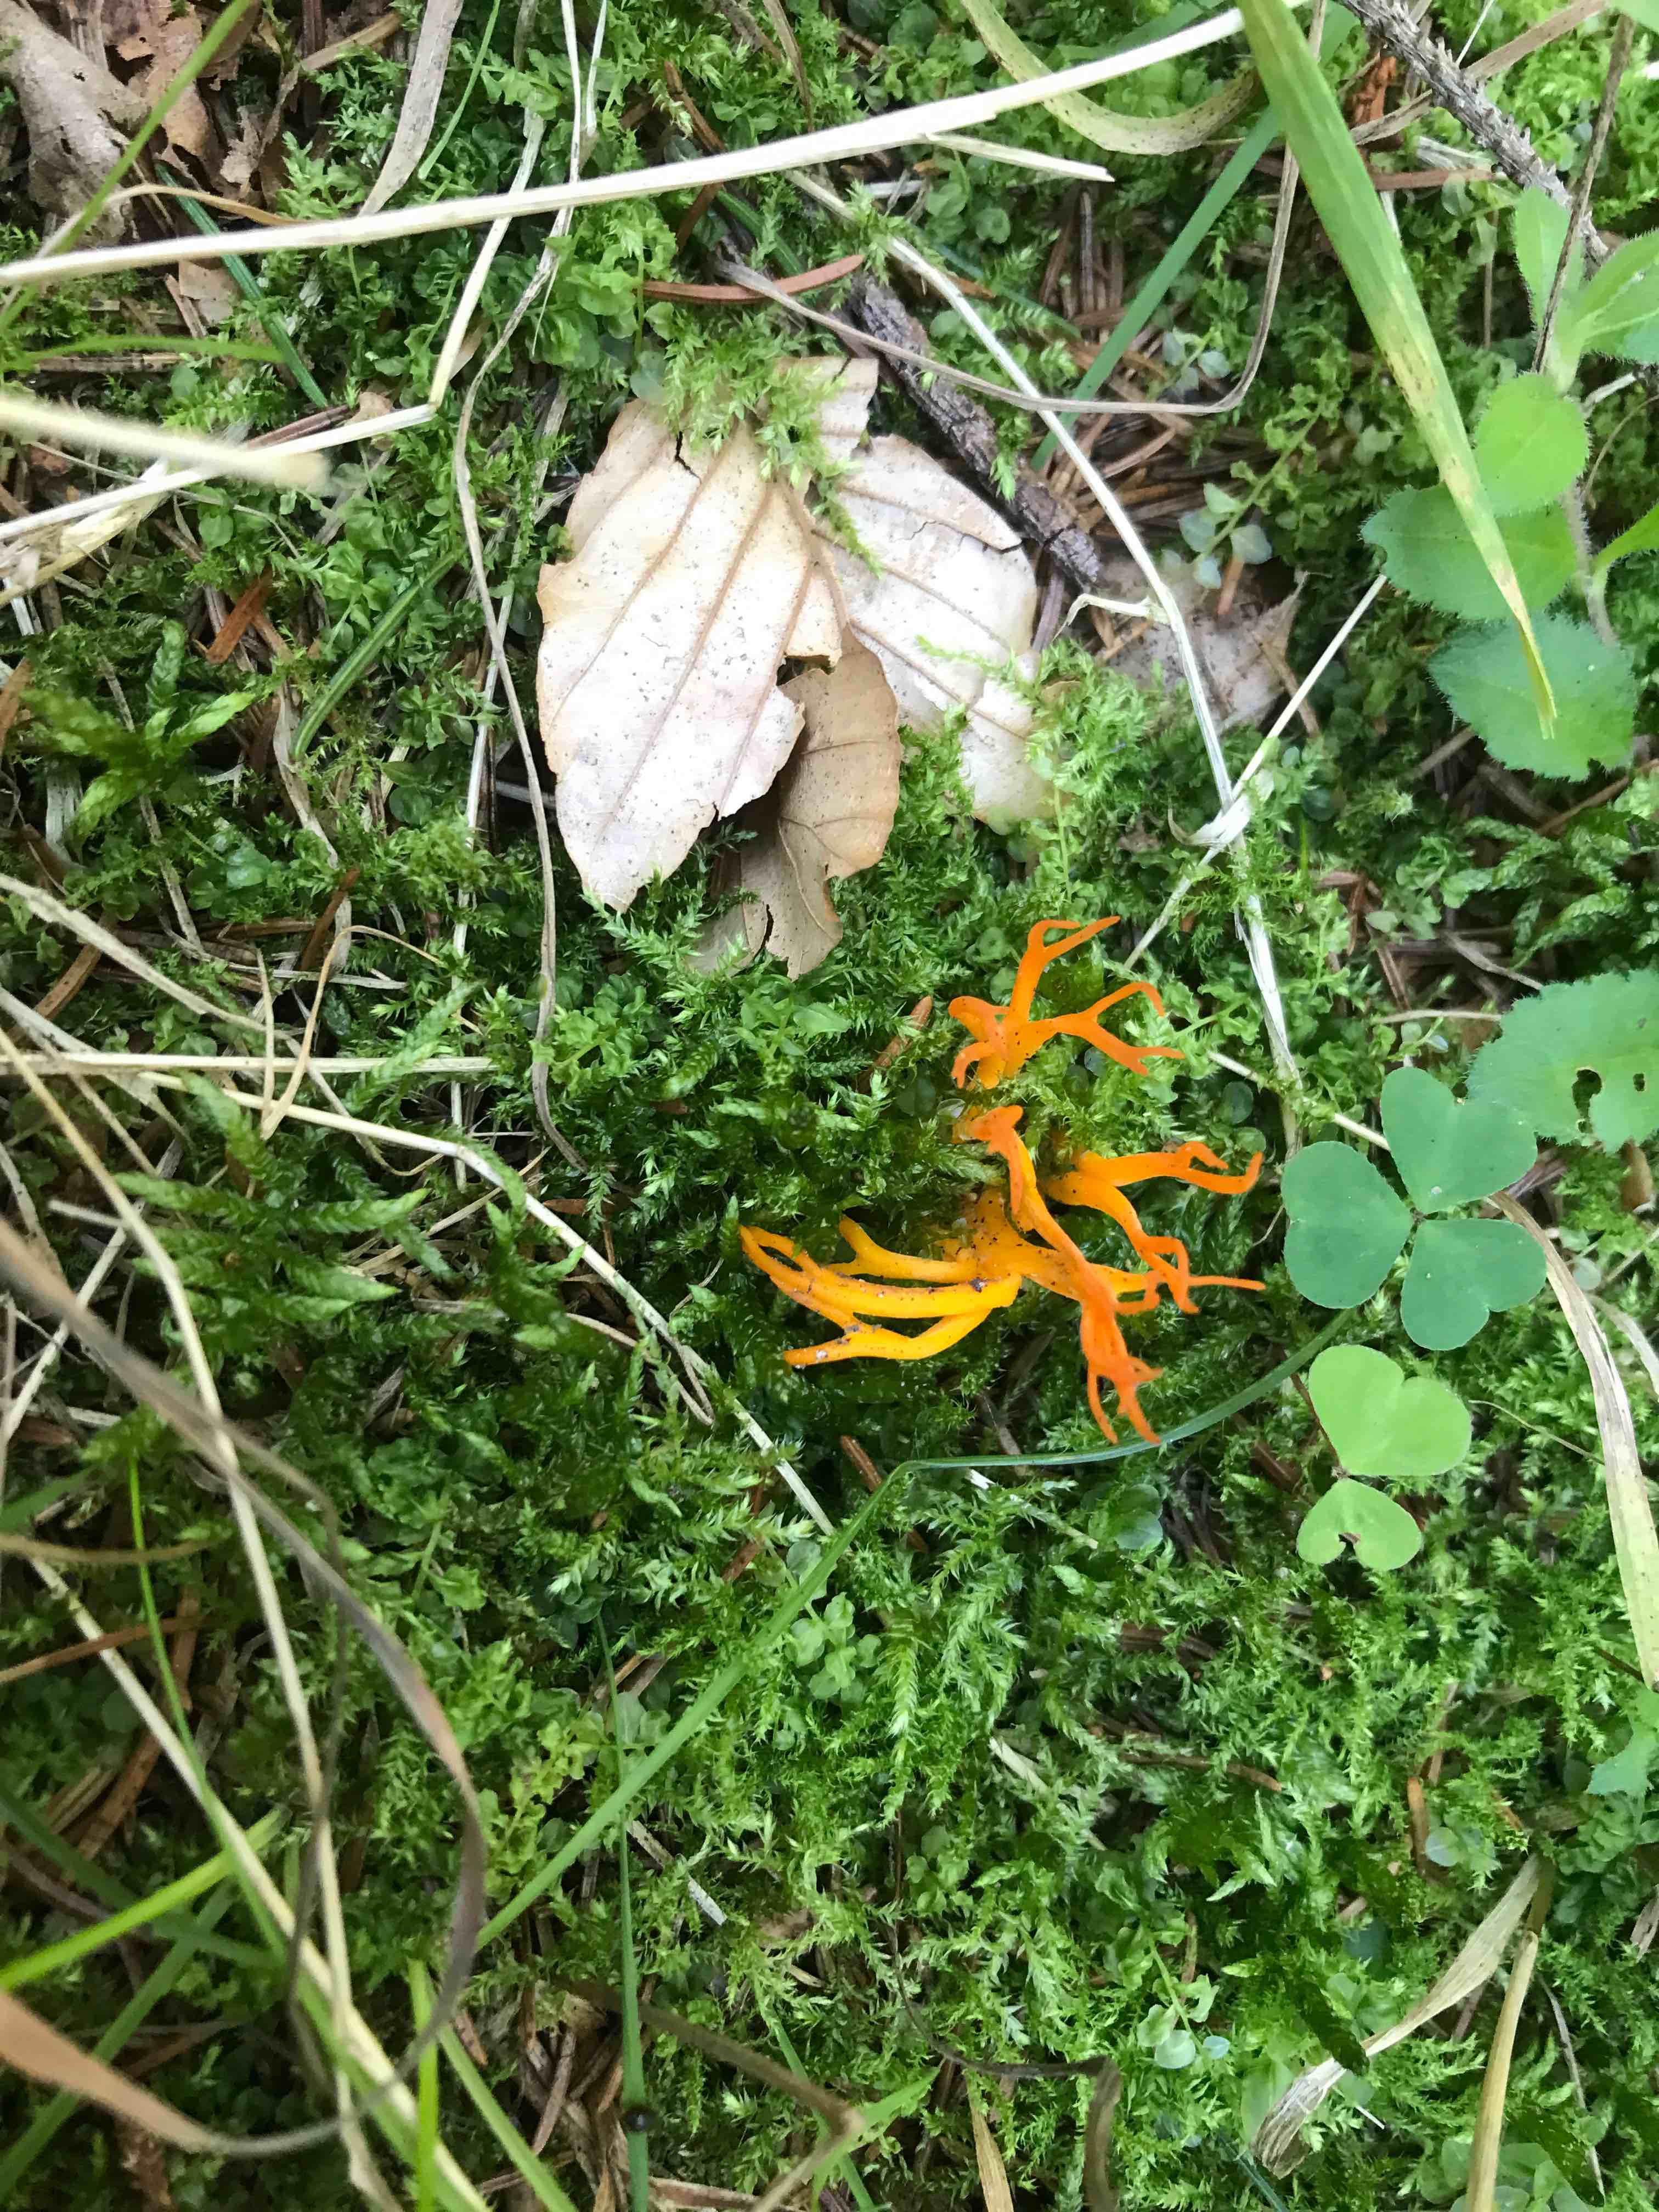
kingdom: Fungi
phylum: Basidiomycota
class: Dacrymycetes
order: Dacrymycetales
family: Dacrymycetaceae
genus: Calocera
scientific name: Calocera viscosa
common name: almindelig guldgaffel
